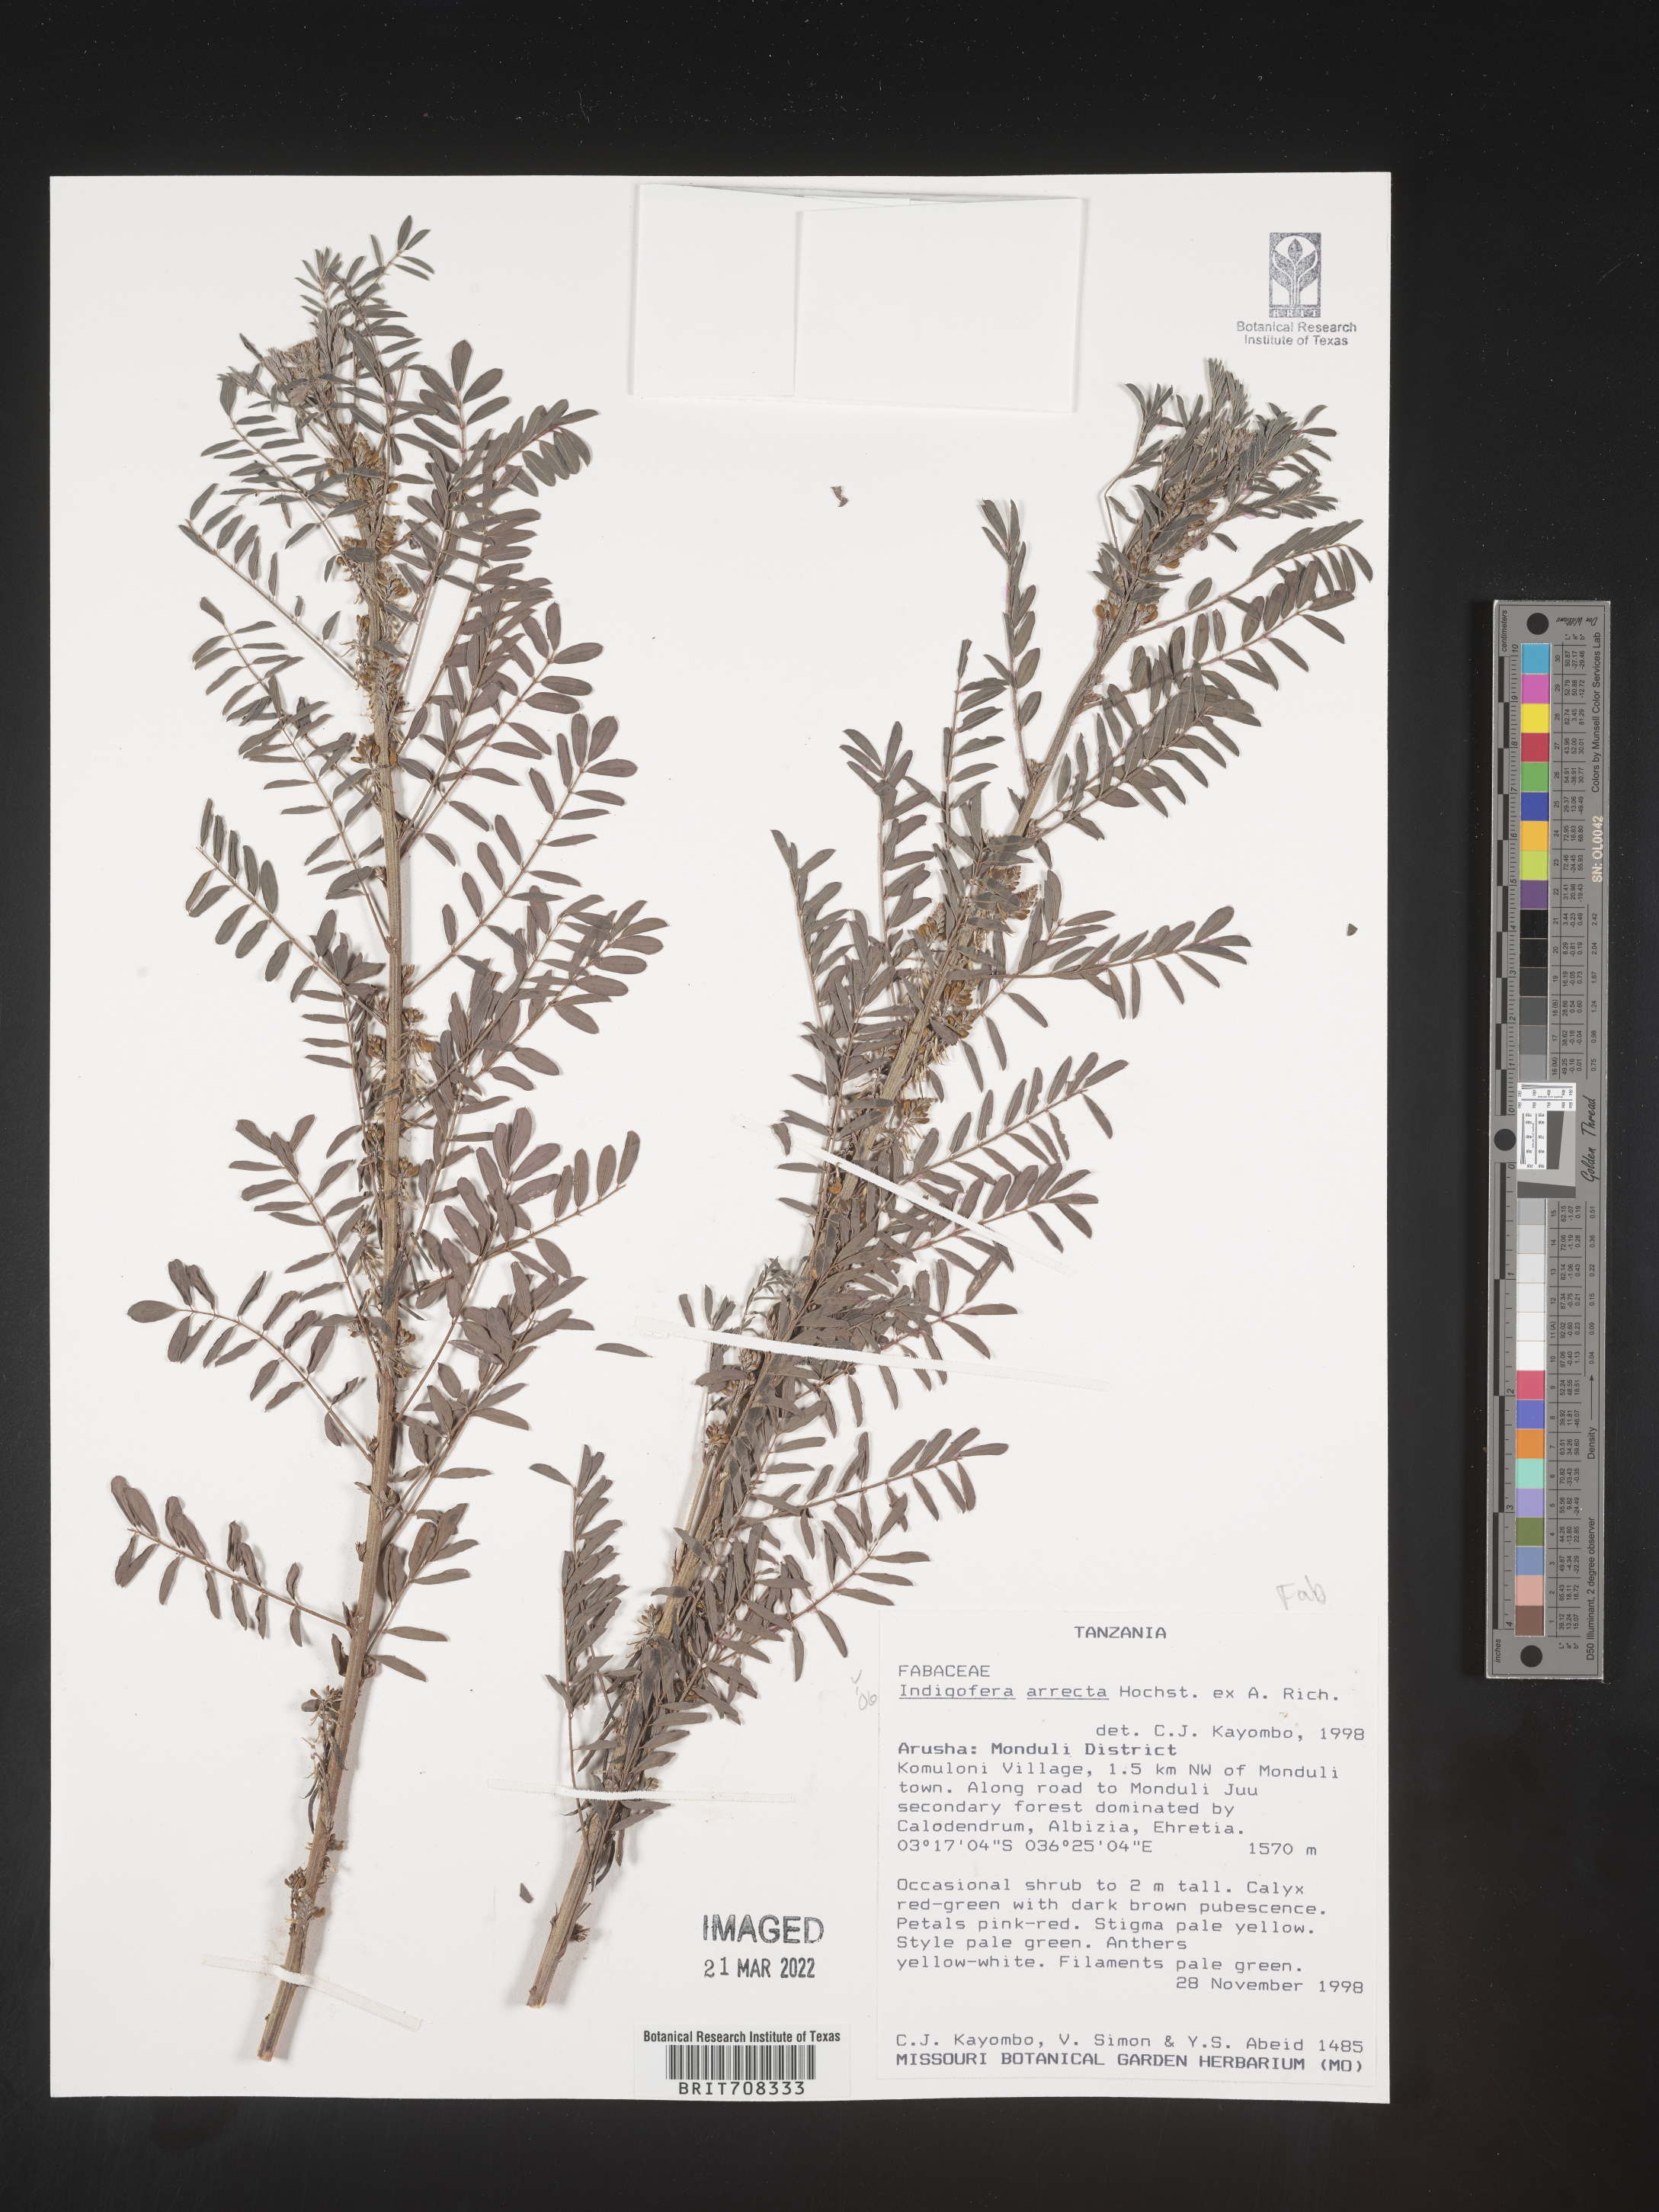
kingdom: Plantae
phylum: Tracheophyta
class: Magnoliopsida
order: Fabales
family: Fabaceae
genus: Indigofera
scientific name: Indigofera
